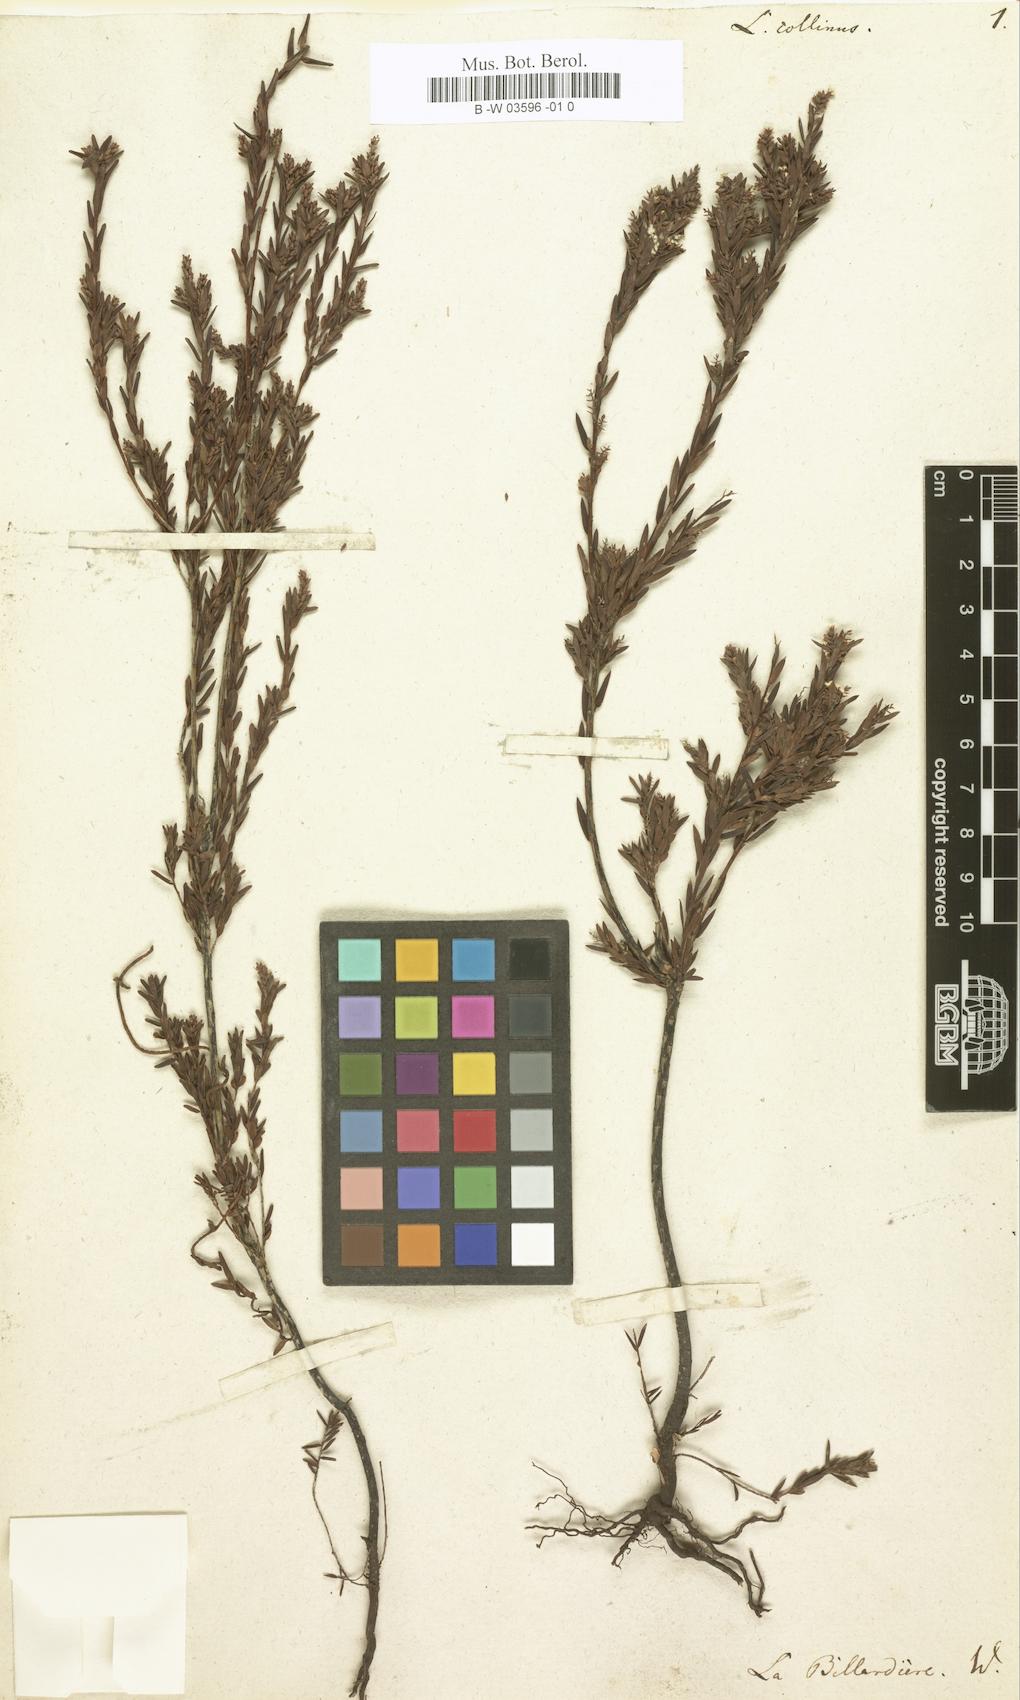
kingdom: Plantae
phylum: Tracheophyta
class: Magnoliopsida
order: Ericales
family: Ericaceae
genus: Leucopogon
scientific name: Leucopogon collinus
